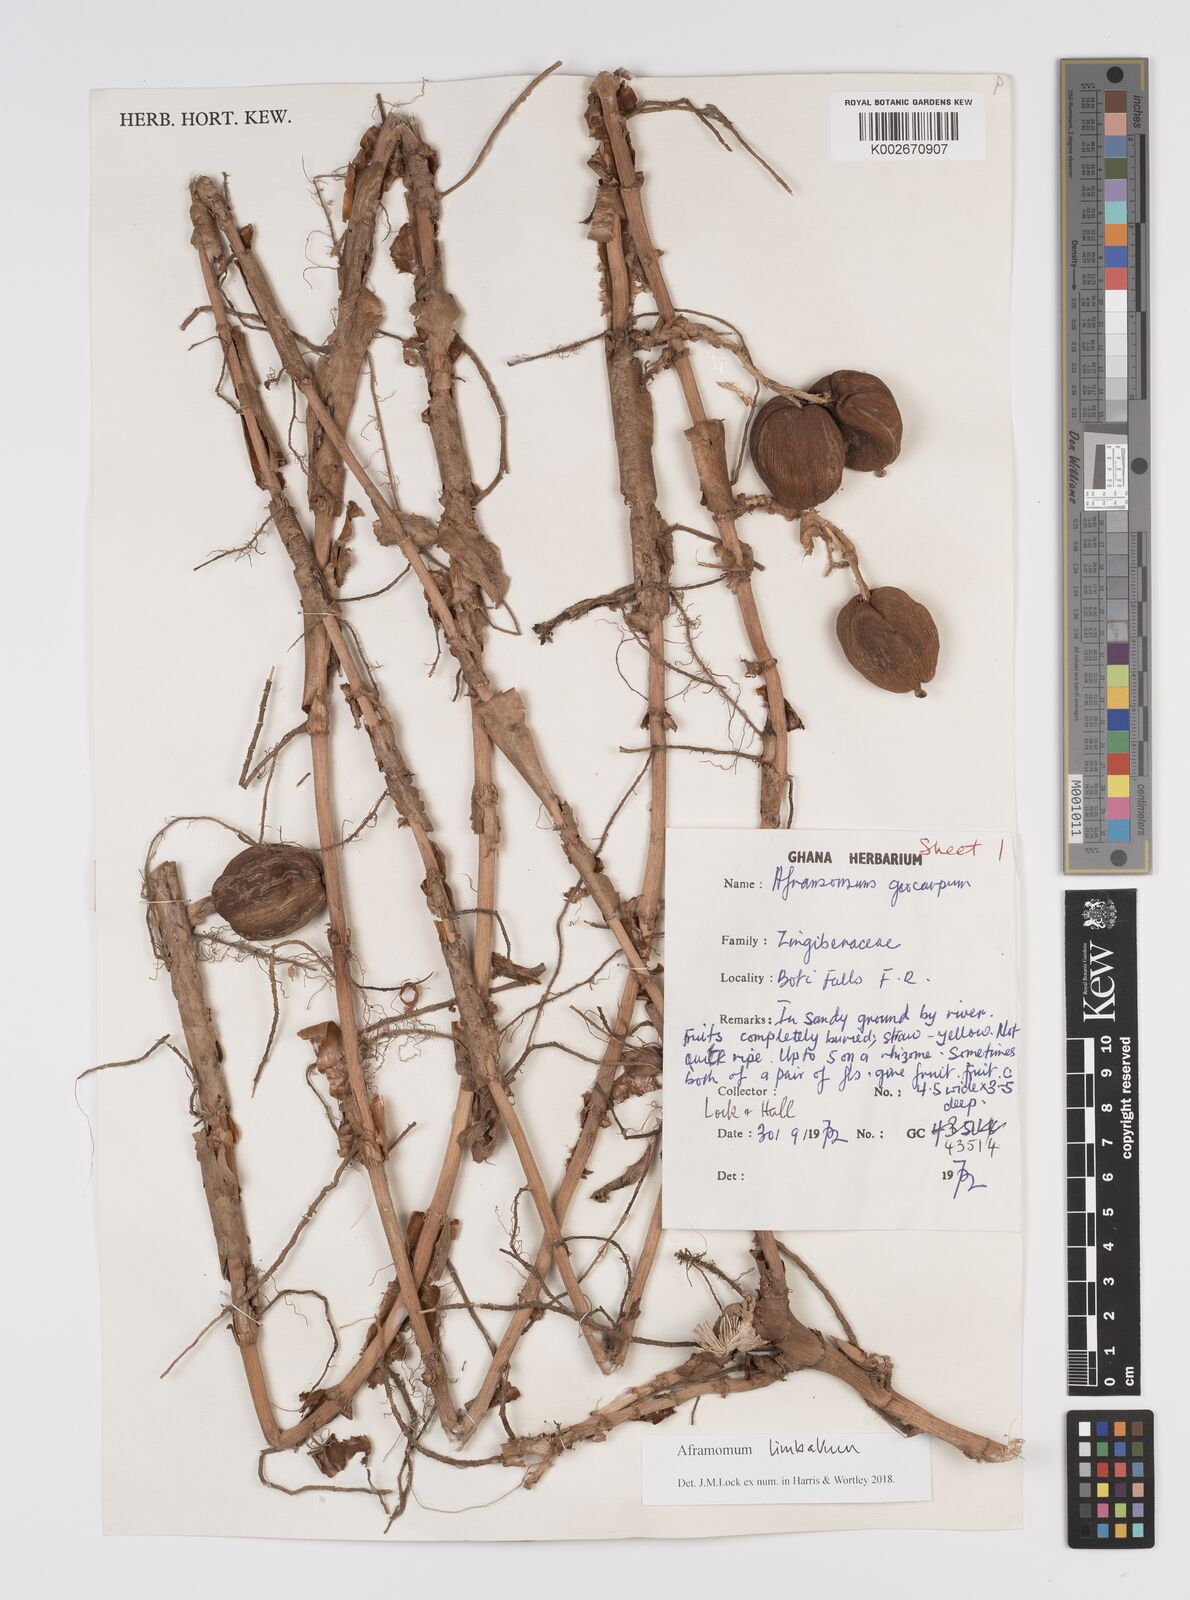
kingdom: Plantae
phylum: Tracheophyta
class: Liliopsida
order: Zingiberales
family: Zingiberaceae
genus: Aframomum
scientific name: Aframomum limbatum
